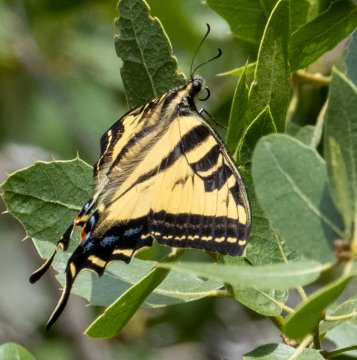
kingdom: Animalia
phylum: Arthropoda
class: Insecta
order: Lepidoptera
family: Papilionidae
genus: Pterourus
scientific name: Pterourus rutulus
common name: Western Tiger Swallowtail
